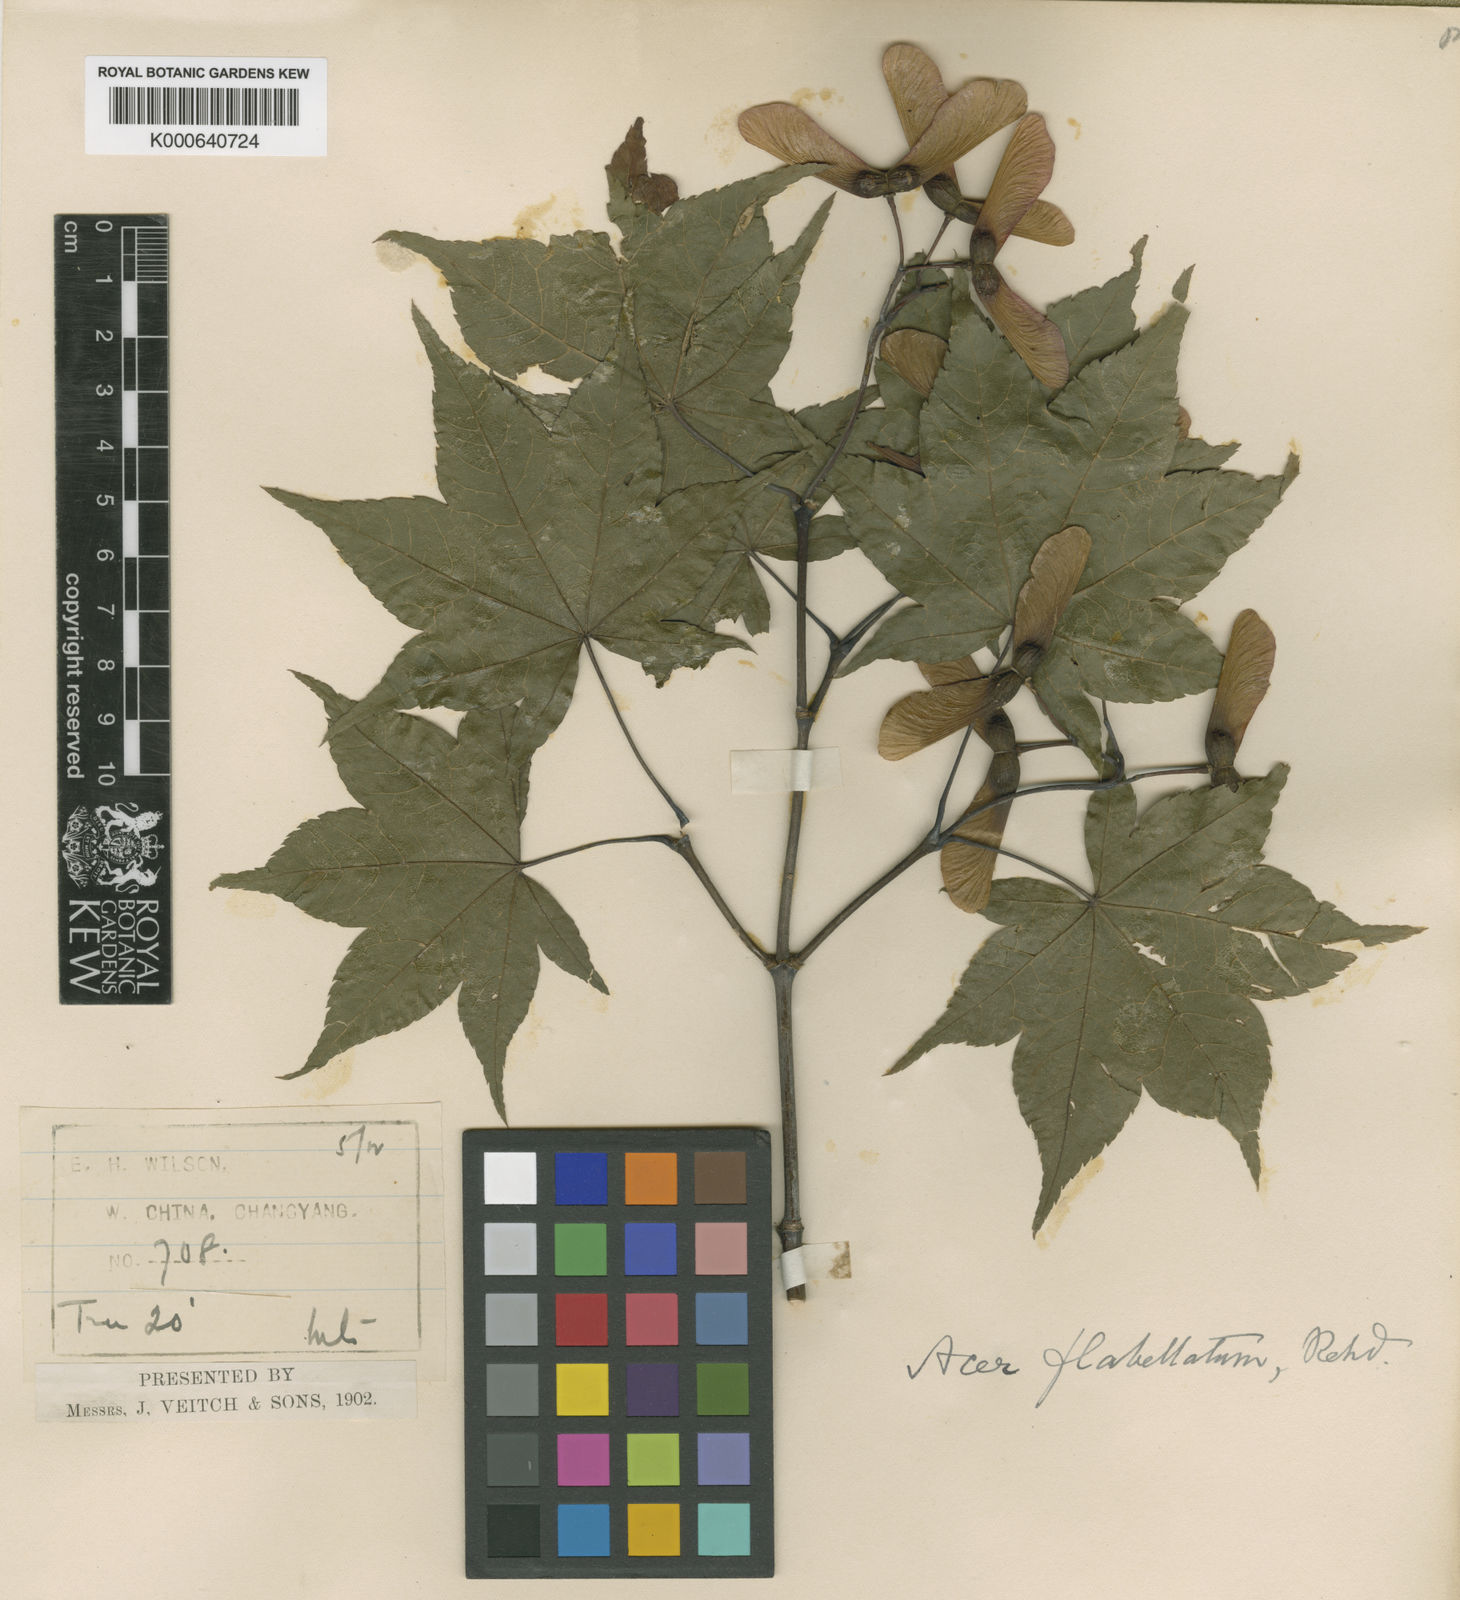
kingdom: Plantae
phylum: Tracheophyta
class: Magnoliopsida
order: Sapindales
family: Sapindaceae
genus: Acer
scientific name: Acer campbellii
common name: Campbell's maple
